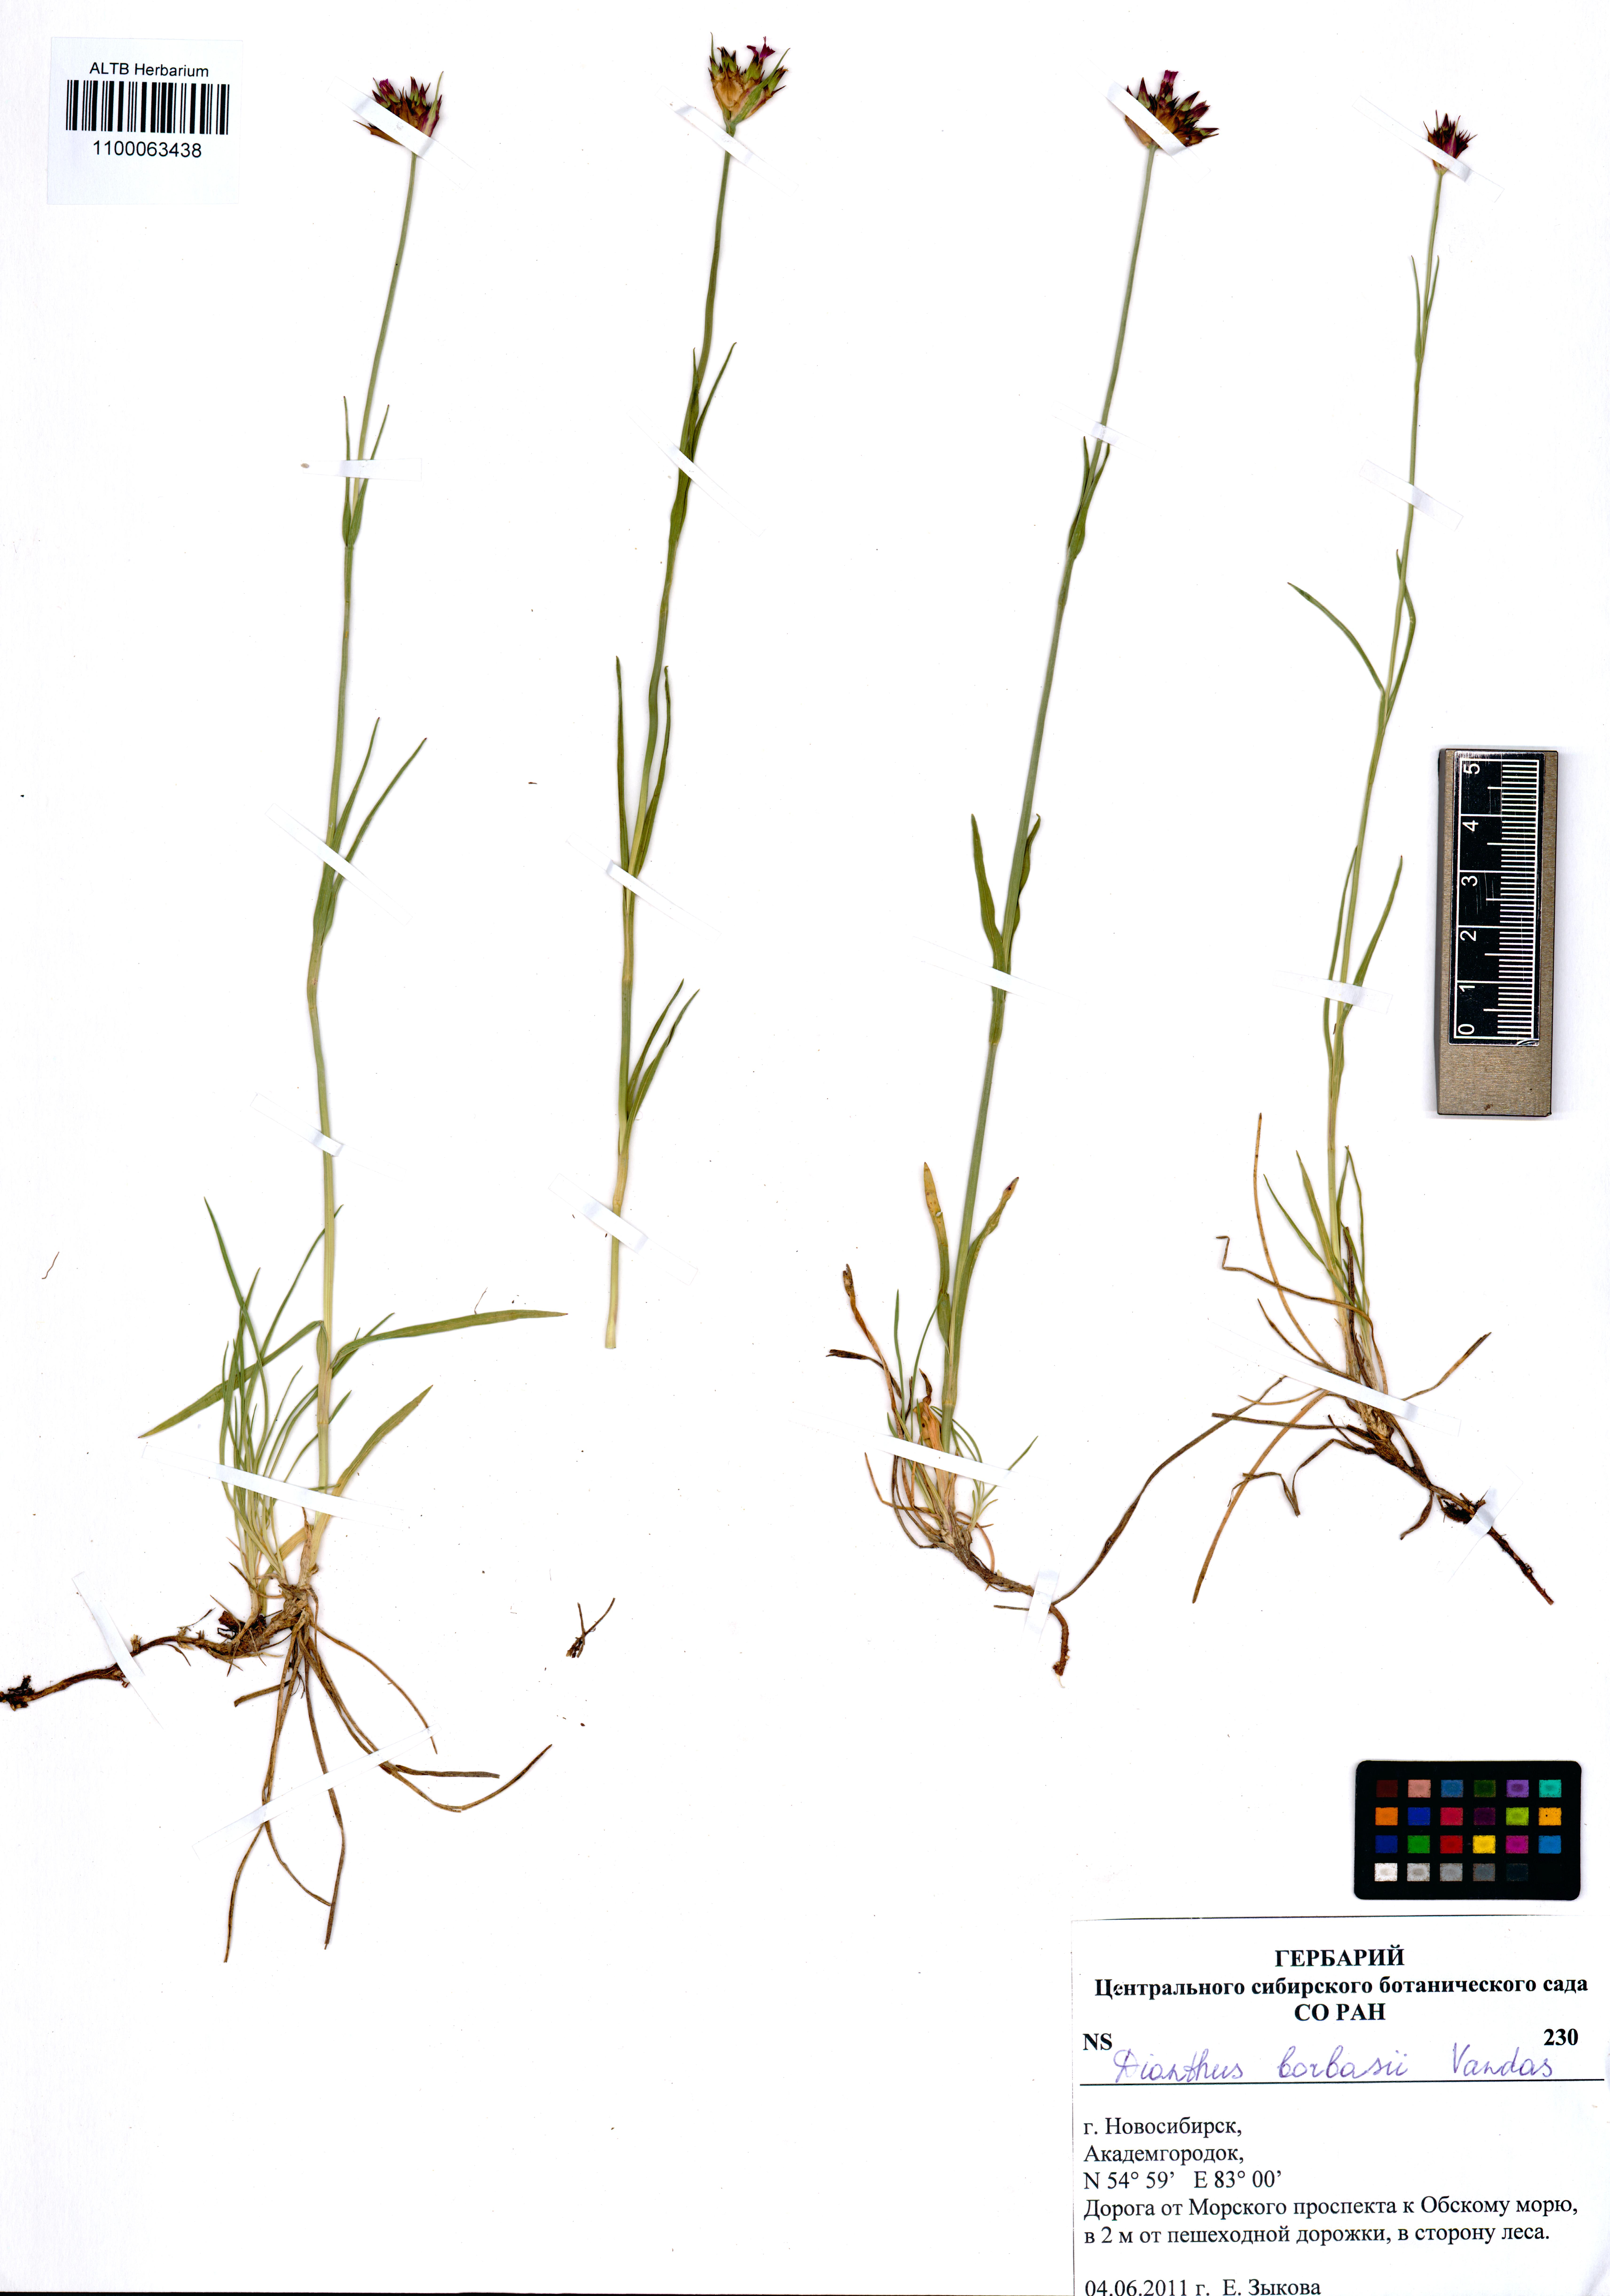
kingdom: Plantae
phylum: Tracheophyta
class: Magnoliopsida
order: Caryophyllales
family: Caryophyllaceae
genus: Dianthus
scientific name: Dianthus borbasii
